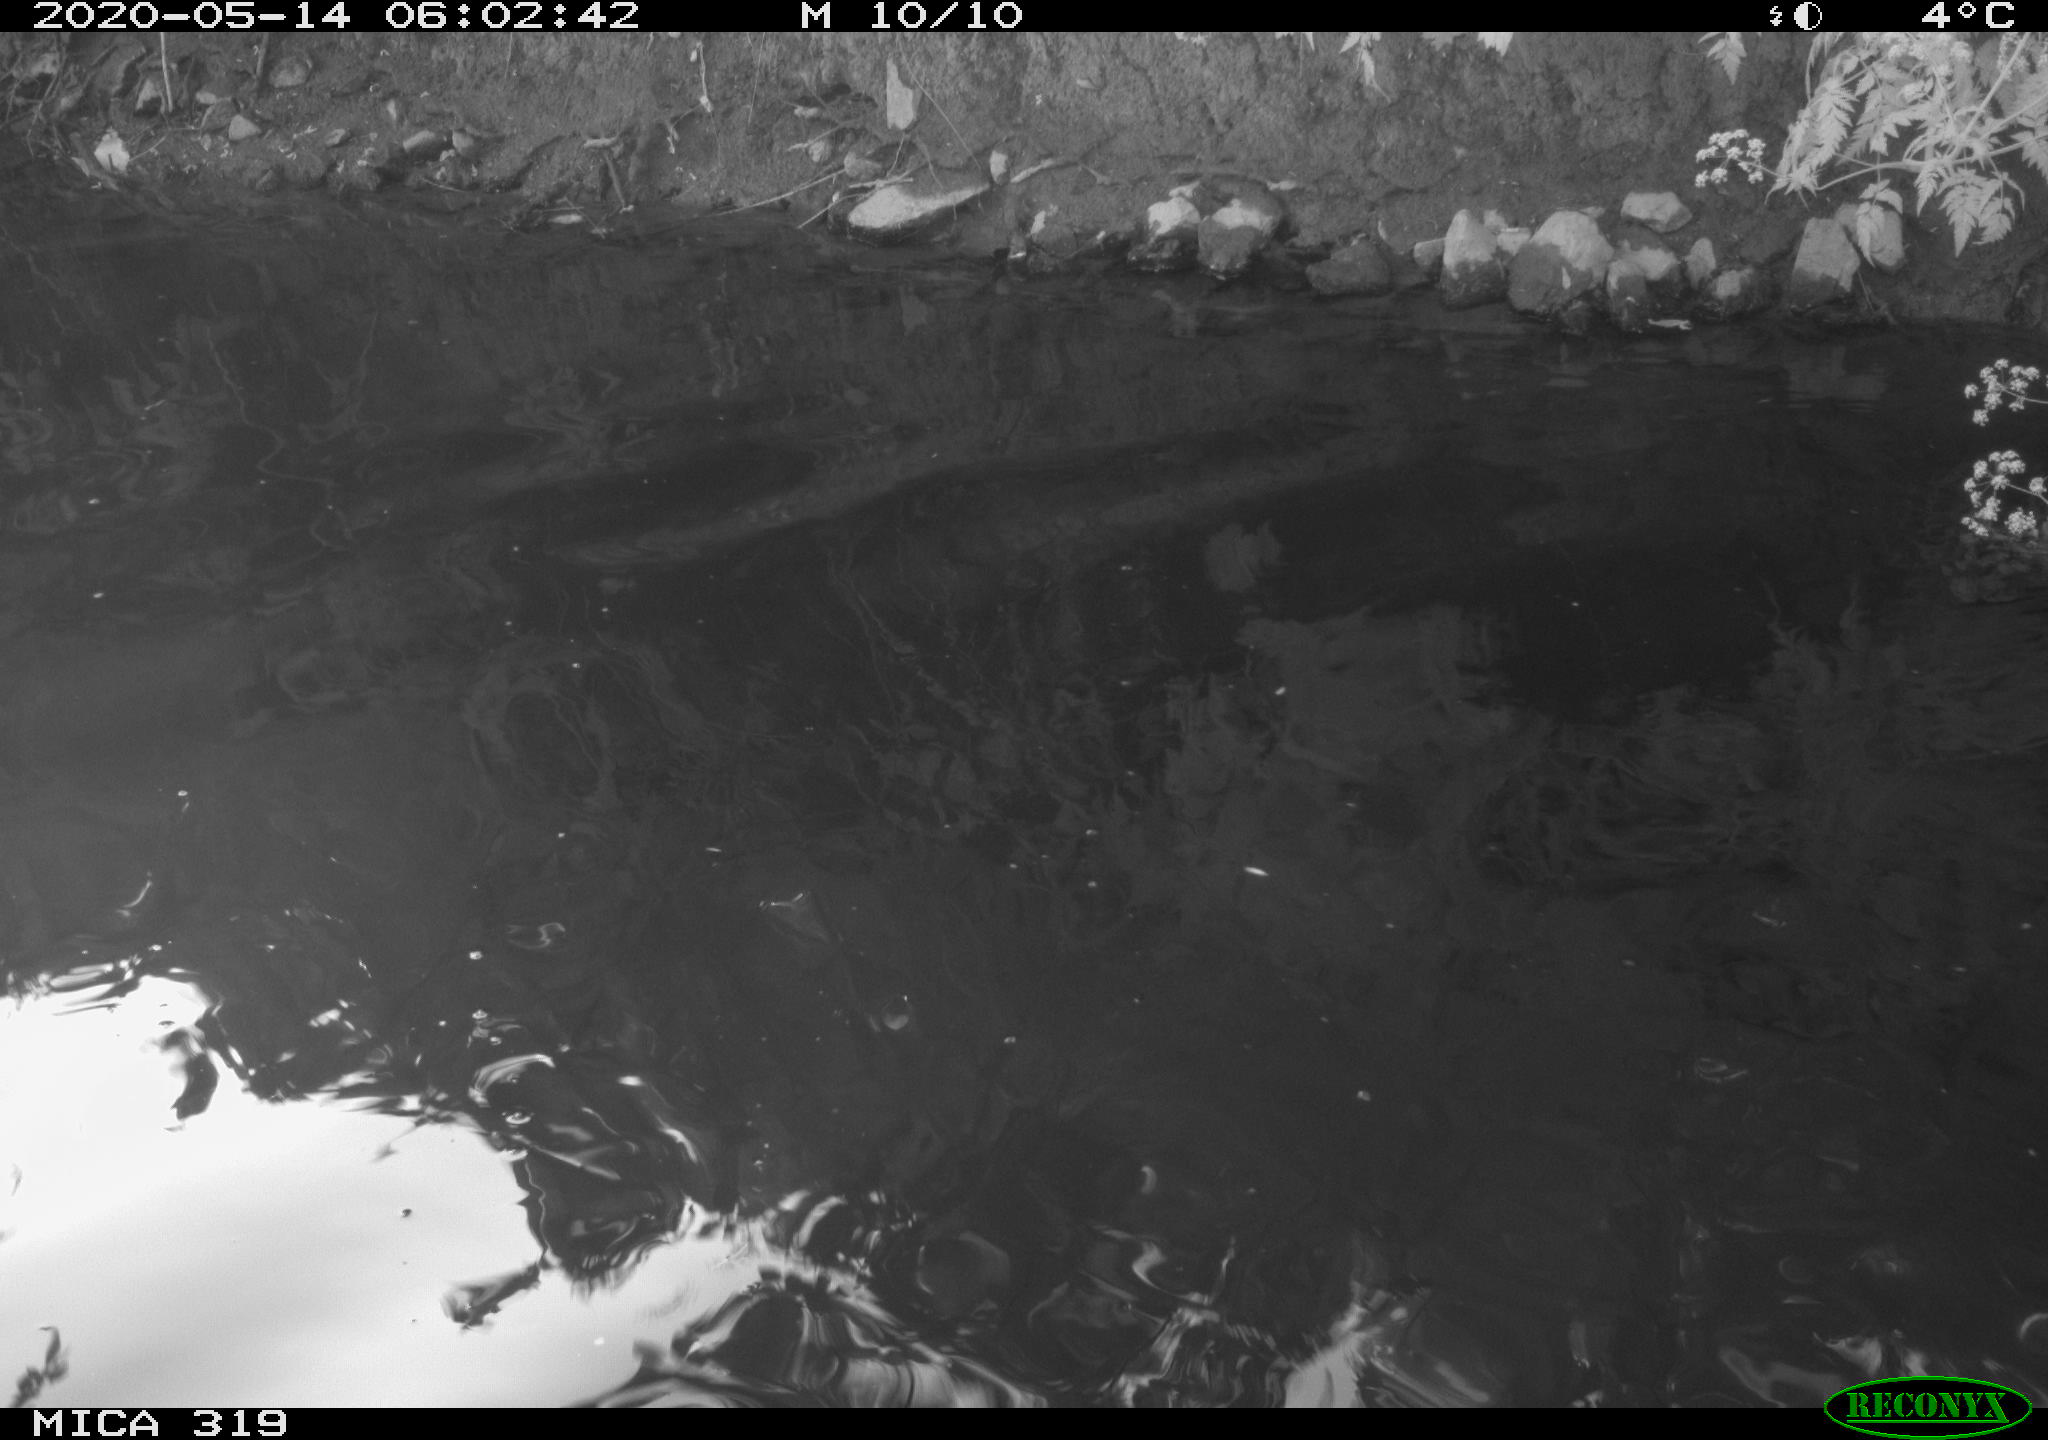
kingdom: Animalia
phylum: Chordata
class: Aves
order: Anseriformes
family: Anatidae
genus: Anas
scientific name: Anas platyrhynchos
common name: Mallard
